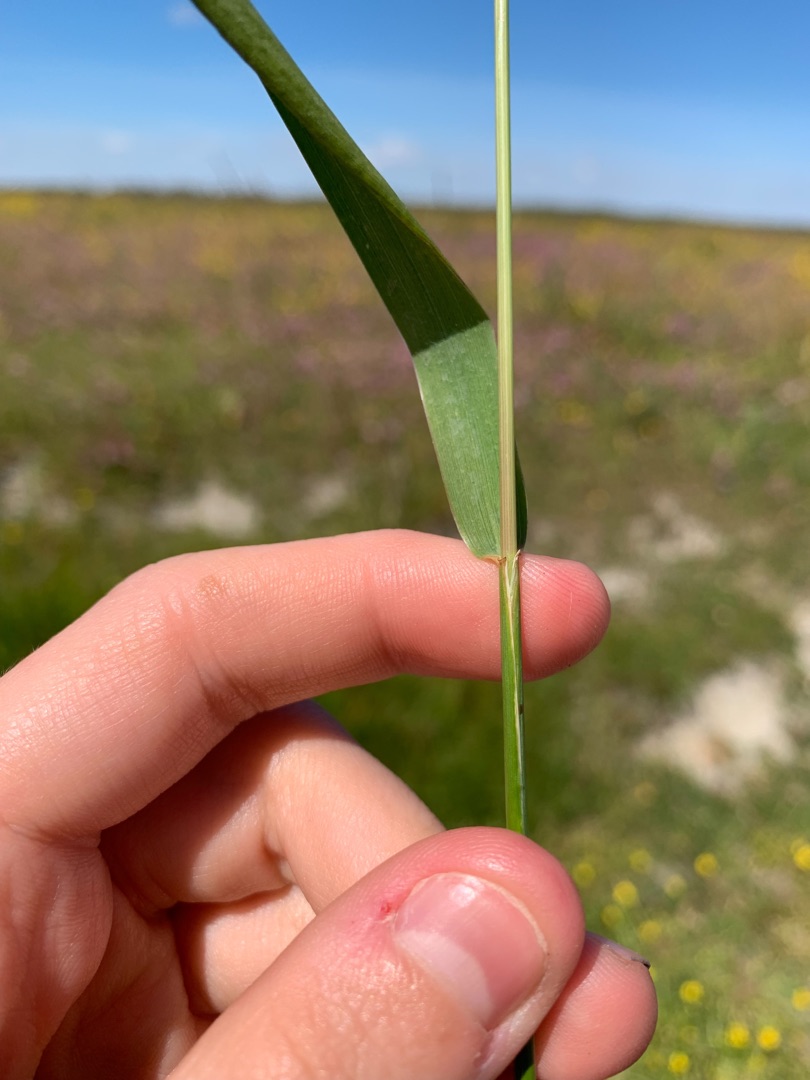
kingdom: Plantae
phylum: Tracheophyta
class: Liliopsida
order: Poales
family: Poaceae
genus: Elymus
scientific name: Elymus repens
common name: Almindelig kvik
